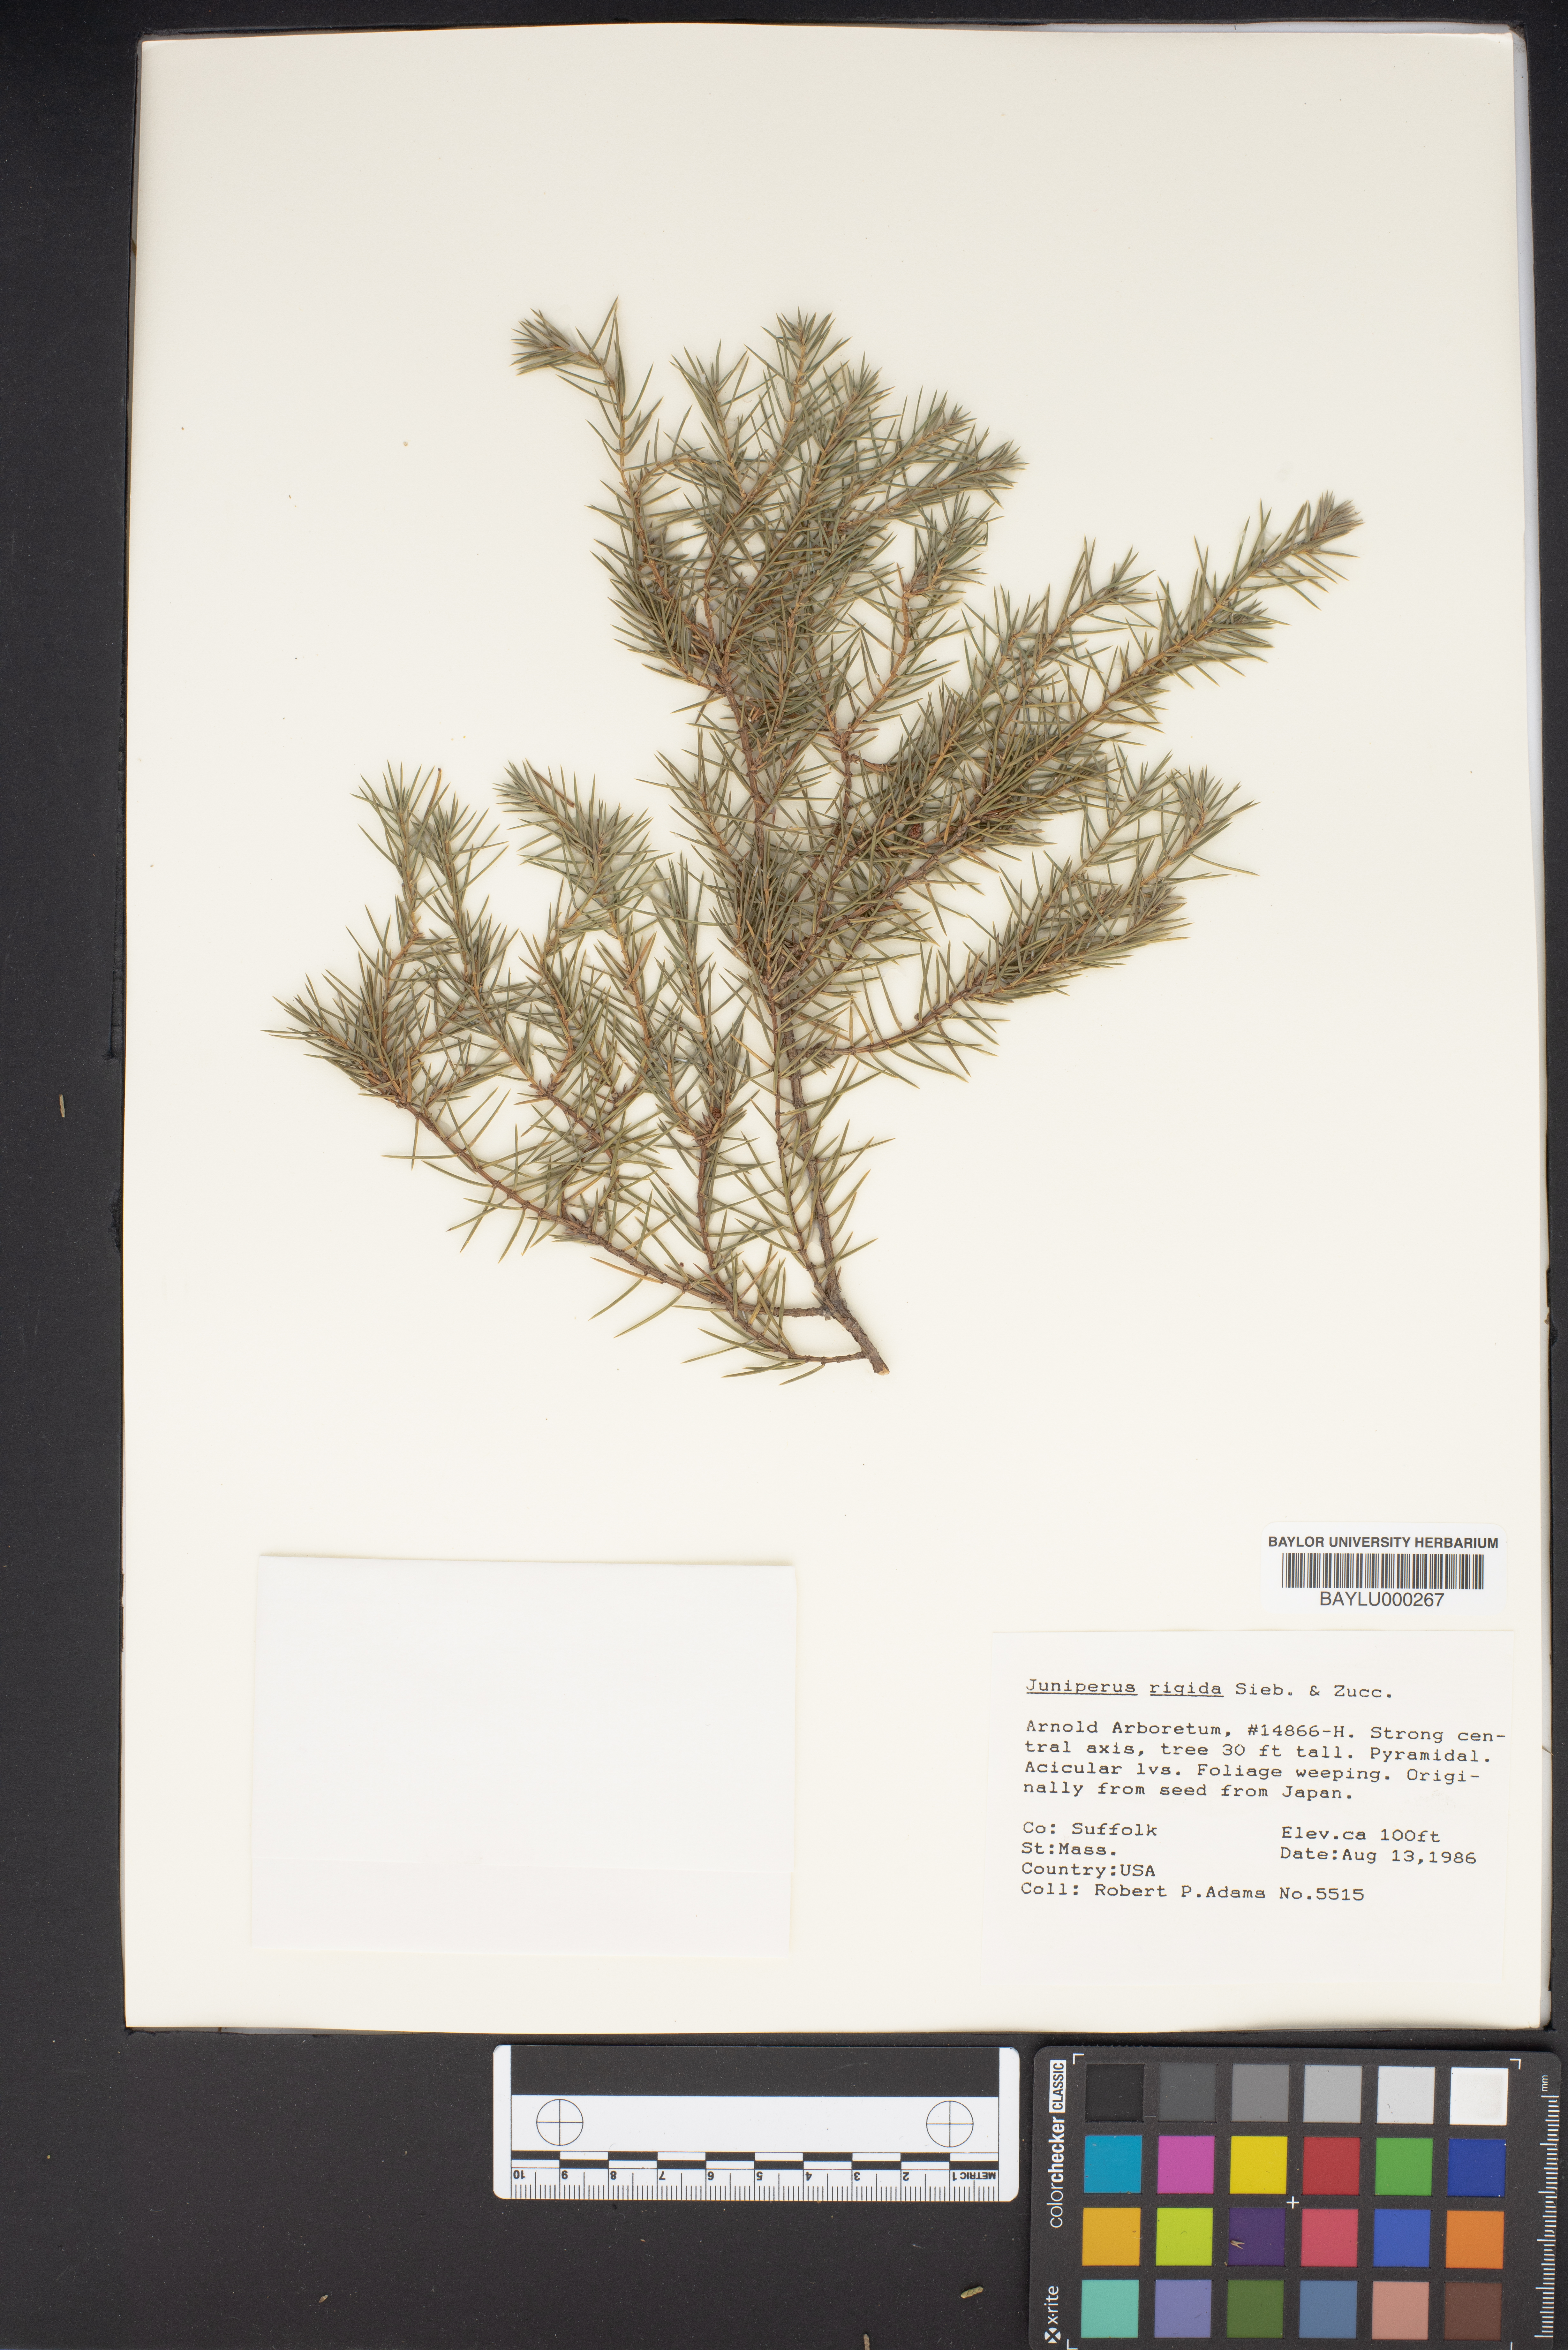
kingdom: Plantae
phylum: Tracheophyta
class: Pinopsida
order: Pinales
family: Cupressaceae
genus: Juniperus
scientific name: Juniperus rigida
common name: Needle juniper
